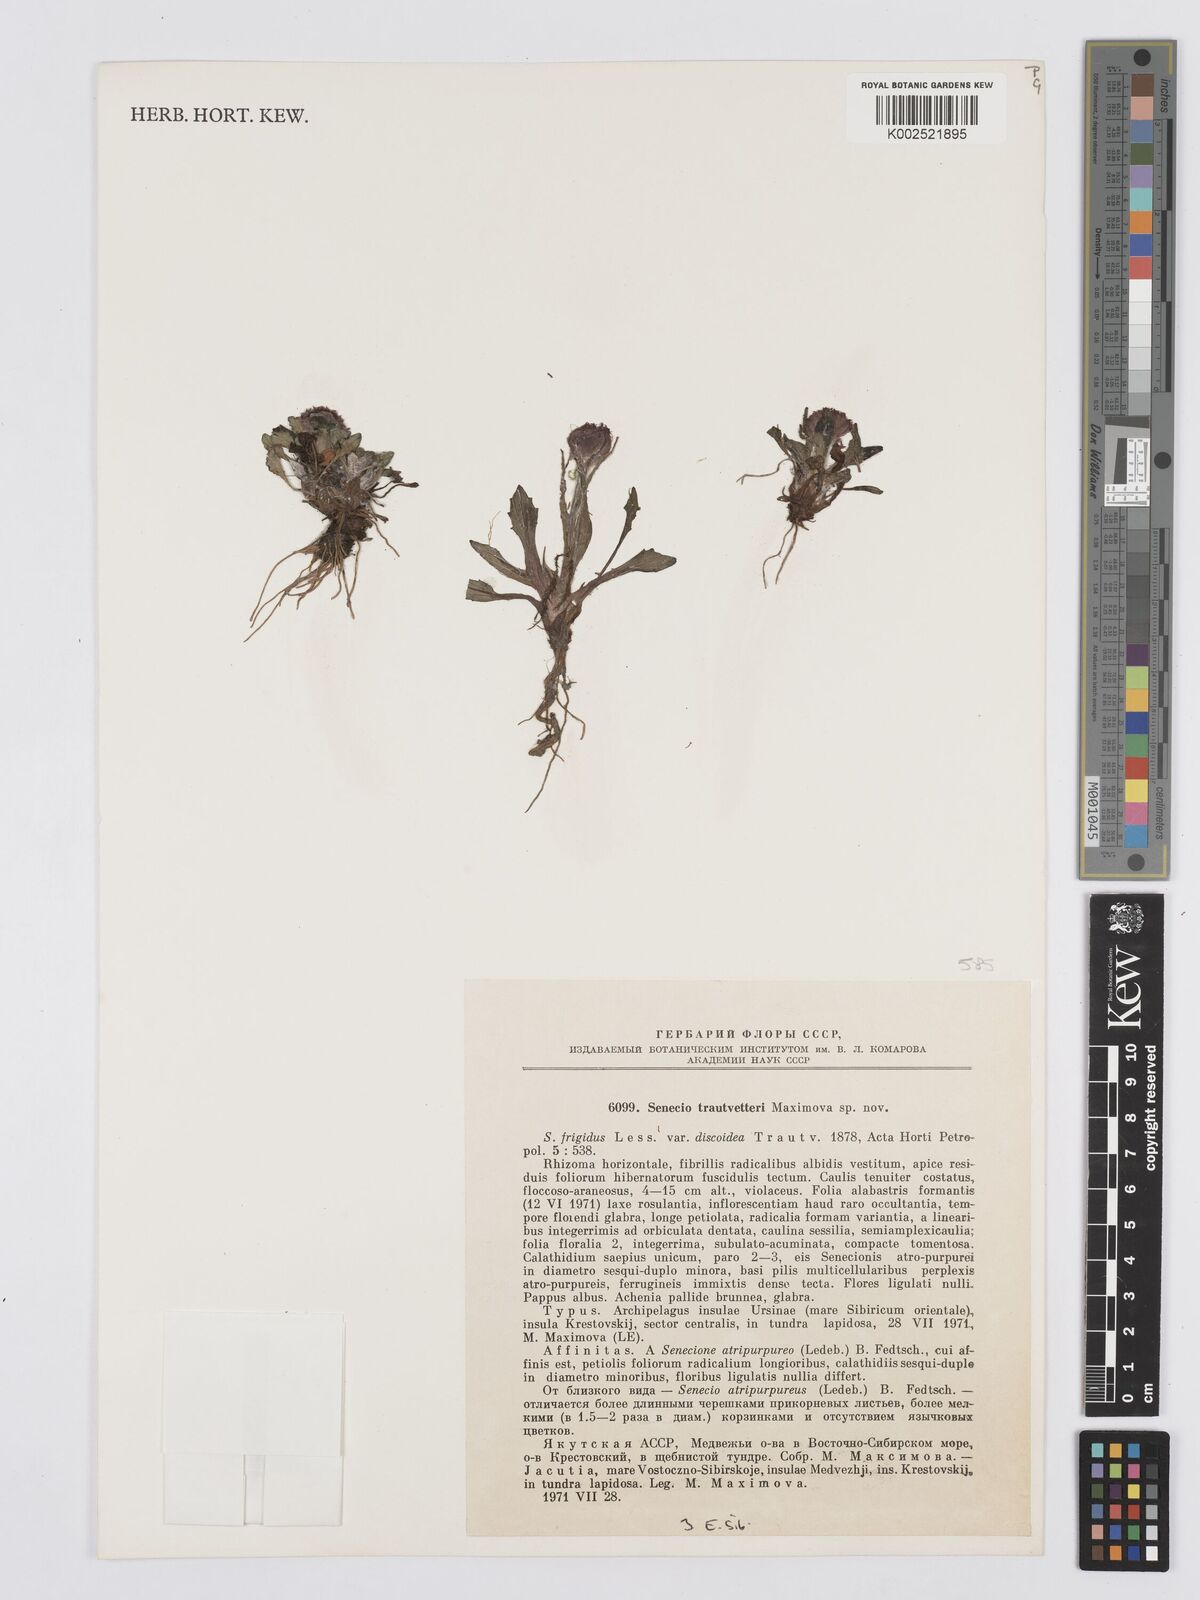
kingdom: Plantae
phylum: Tracheophyta
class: Magnoliopsida
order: Asterales
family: Asteraceae
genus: Tephroseris
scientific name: Tephroseris integrifolia
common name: Field fleawort
